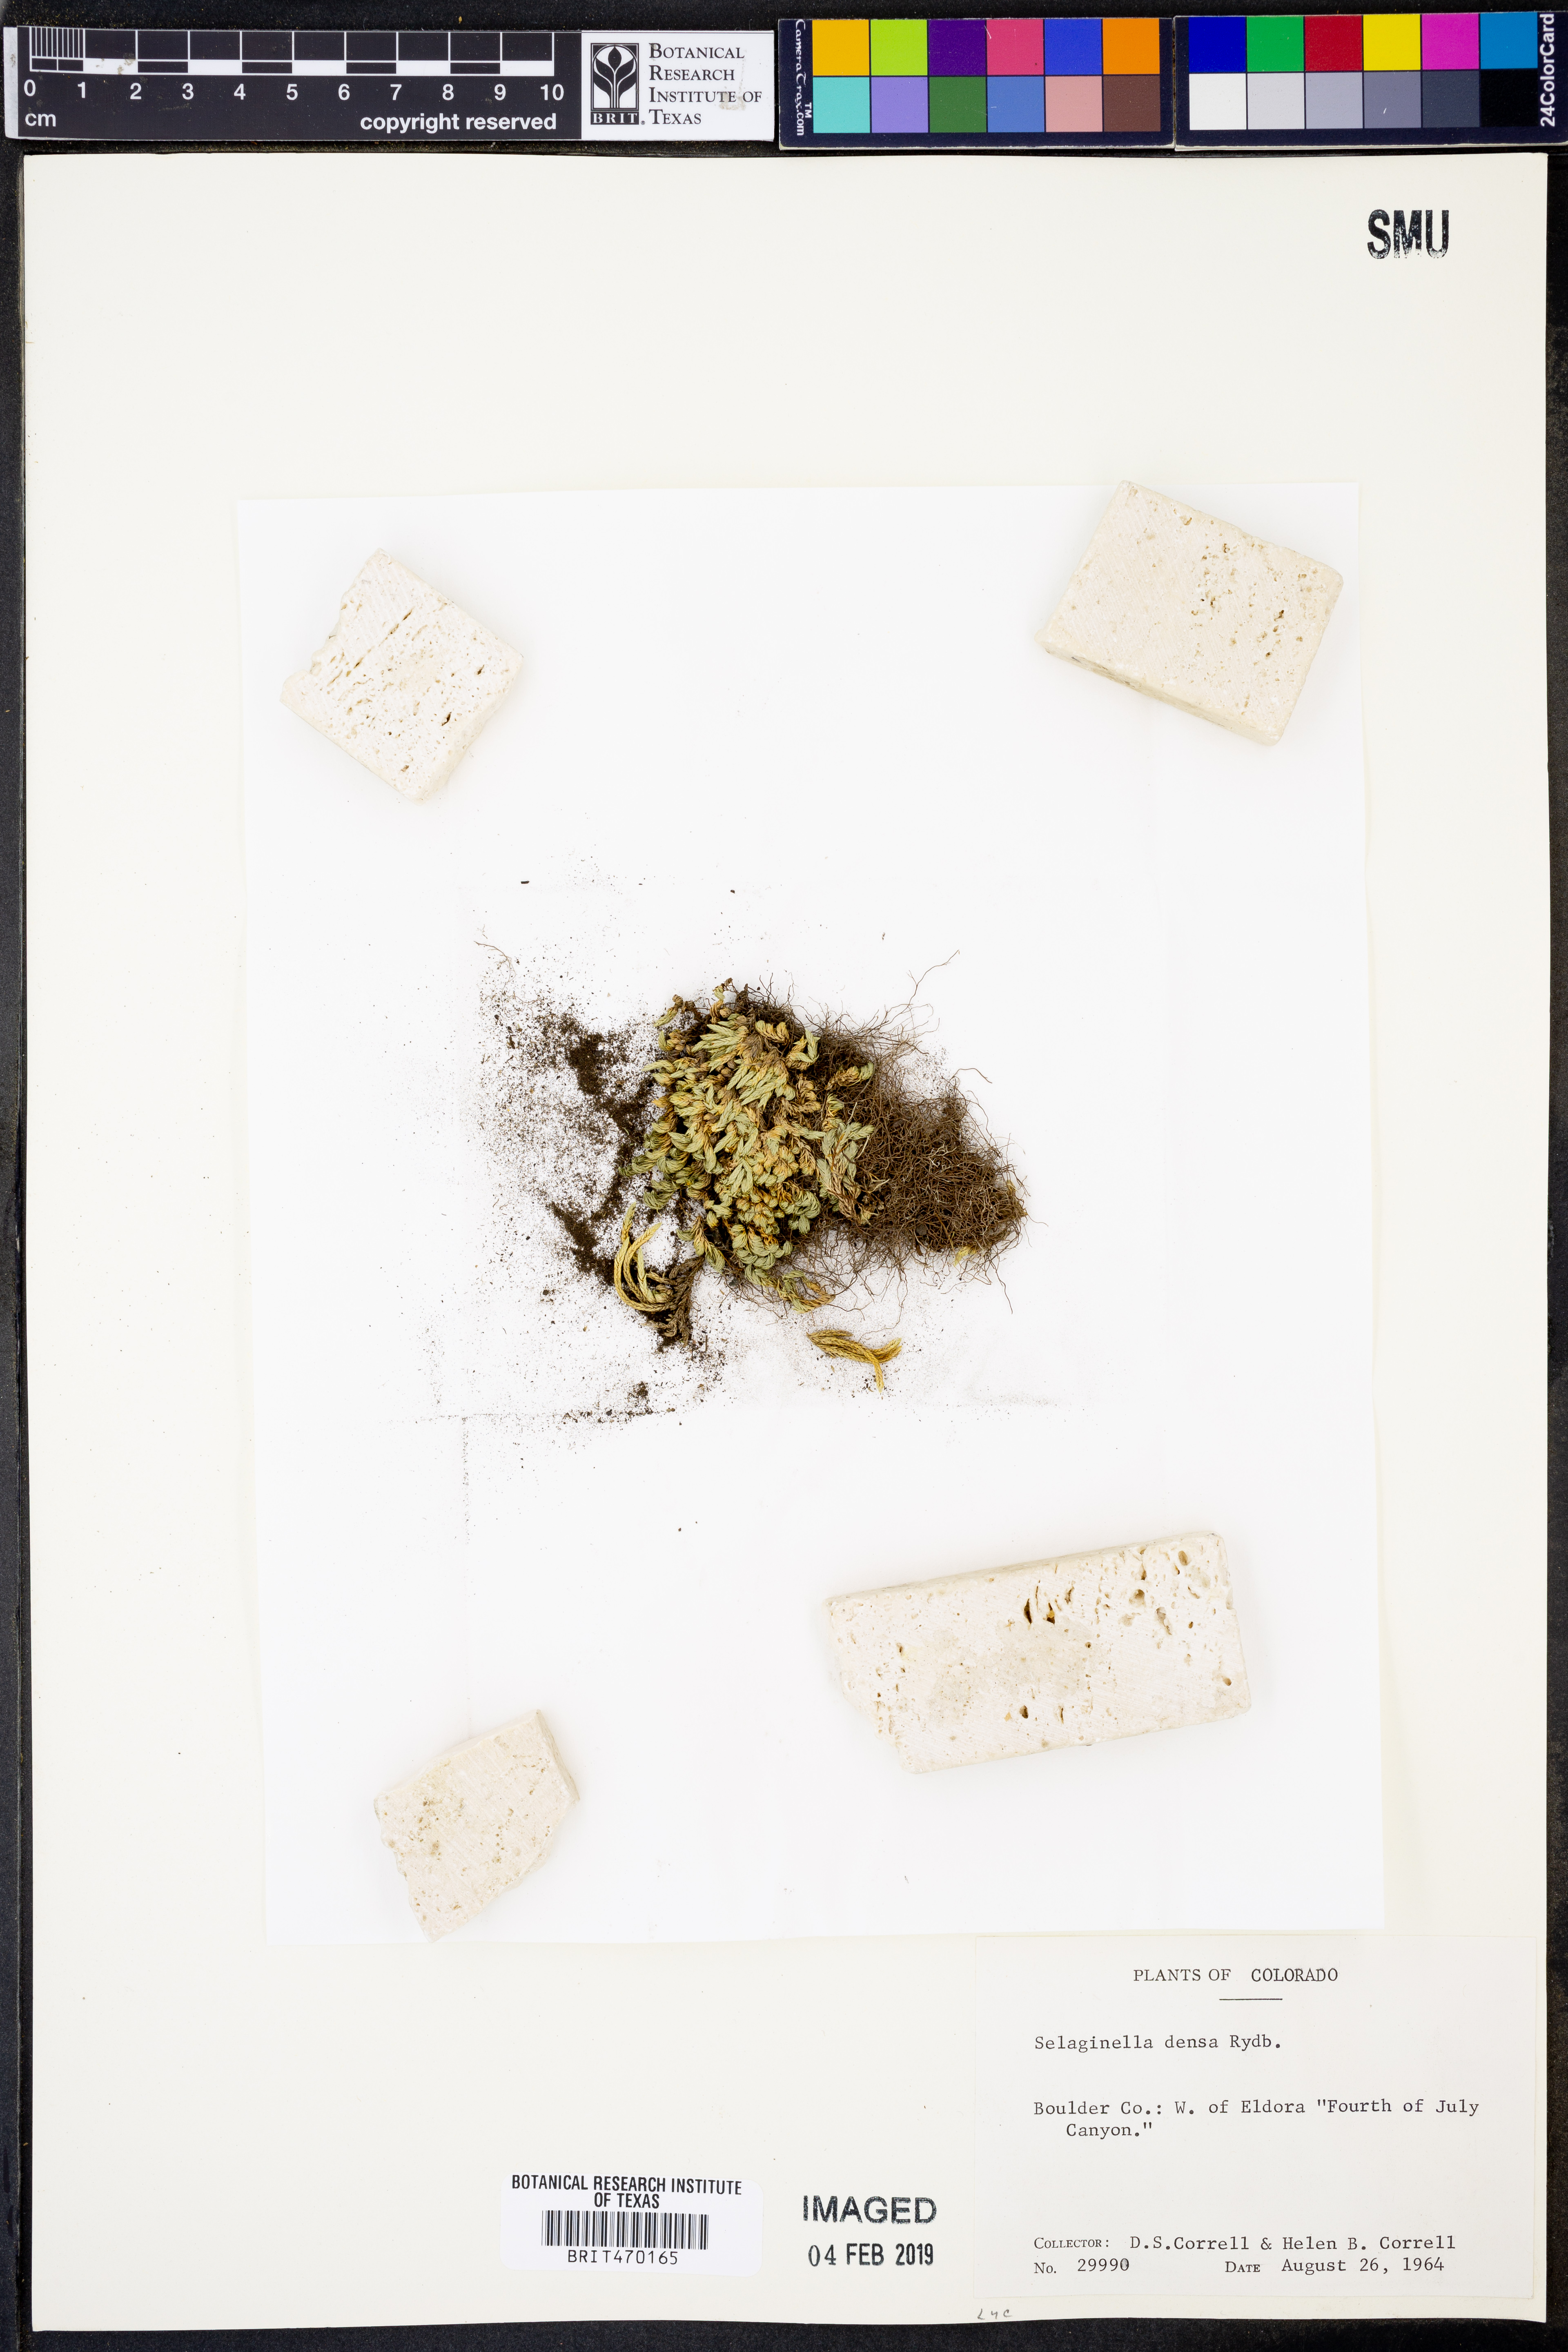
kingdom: Plantae
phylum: Tracheophyta
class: Lycopodiopsida
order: Selaginellales
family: Selaginellaceae
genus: Selaginella
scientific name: Selaginella densa
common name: Mountain spike-moss
